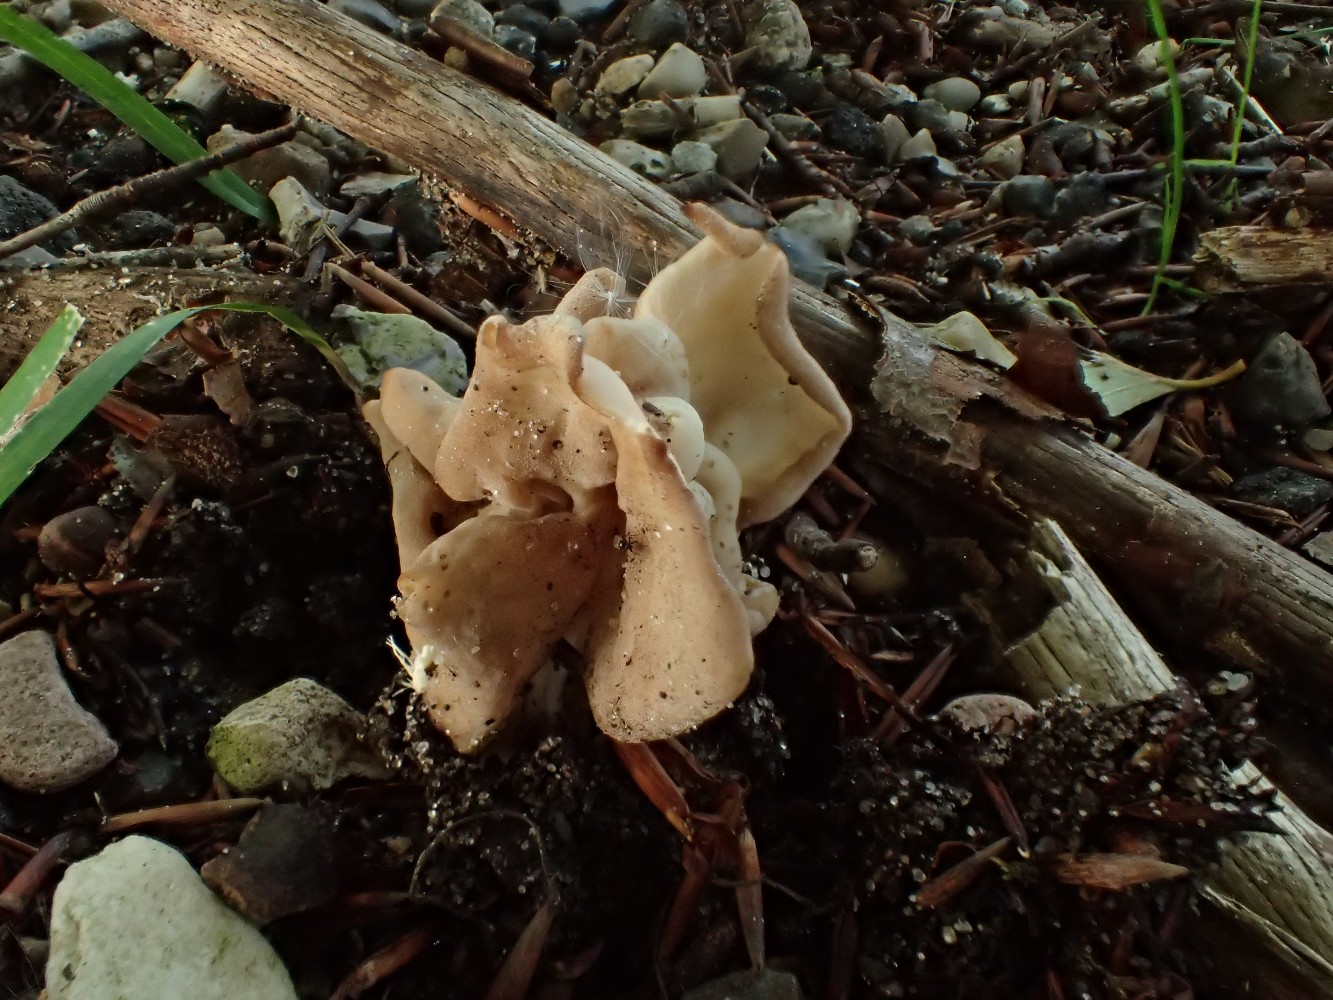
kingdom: Fungi
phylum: Ascomycota
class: Pezizomycetes
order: Pezizales
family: Helvellaceae
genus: Helvella
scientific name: Helvella crispa
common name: kruset foldhat
